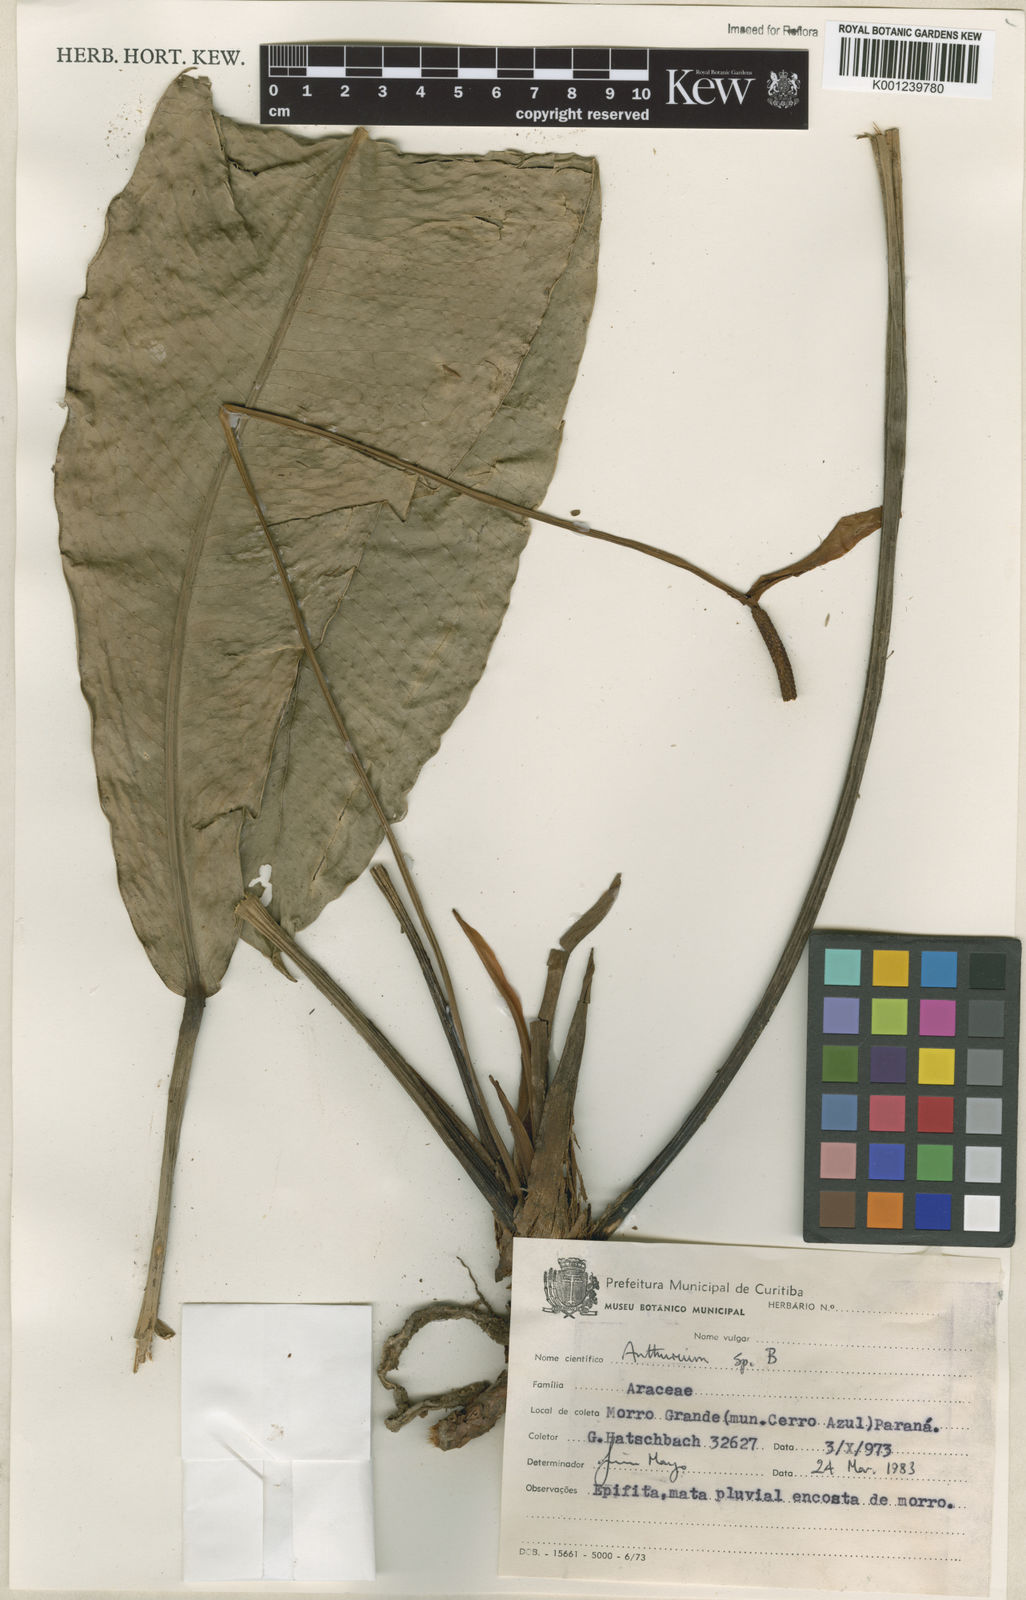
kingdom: Plantae
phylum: Tracheophyta
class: Liliopsida
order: Alismatales
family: Araceae
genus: Anthurium
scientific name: Anthurium
